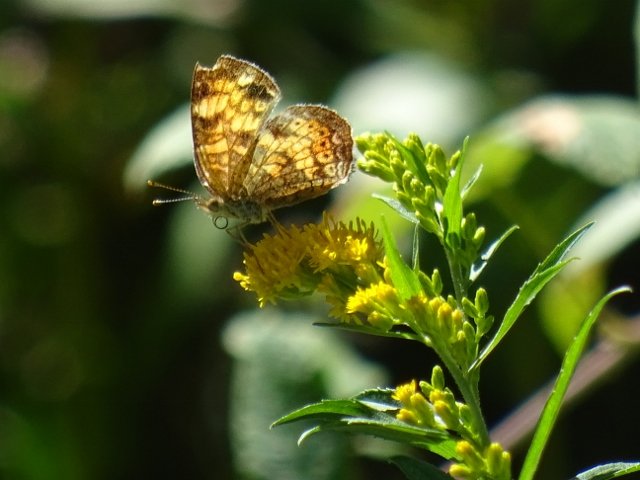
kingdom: Animalia
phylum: Arthropoda
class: Insecta
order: Lepidoptera
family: Nymphalidae
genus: Phyciodes
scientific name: Phyciodes tharos
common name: Northern Crescent
